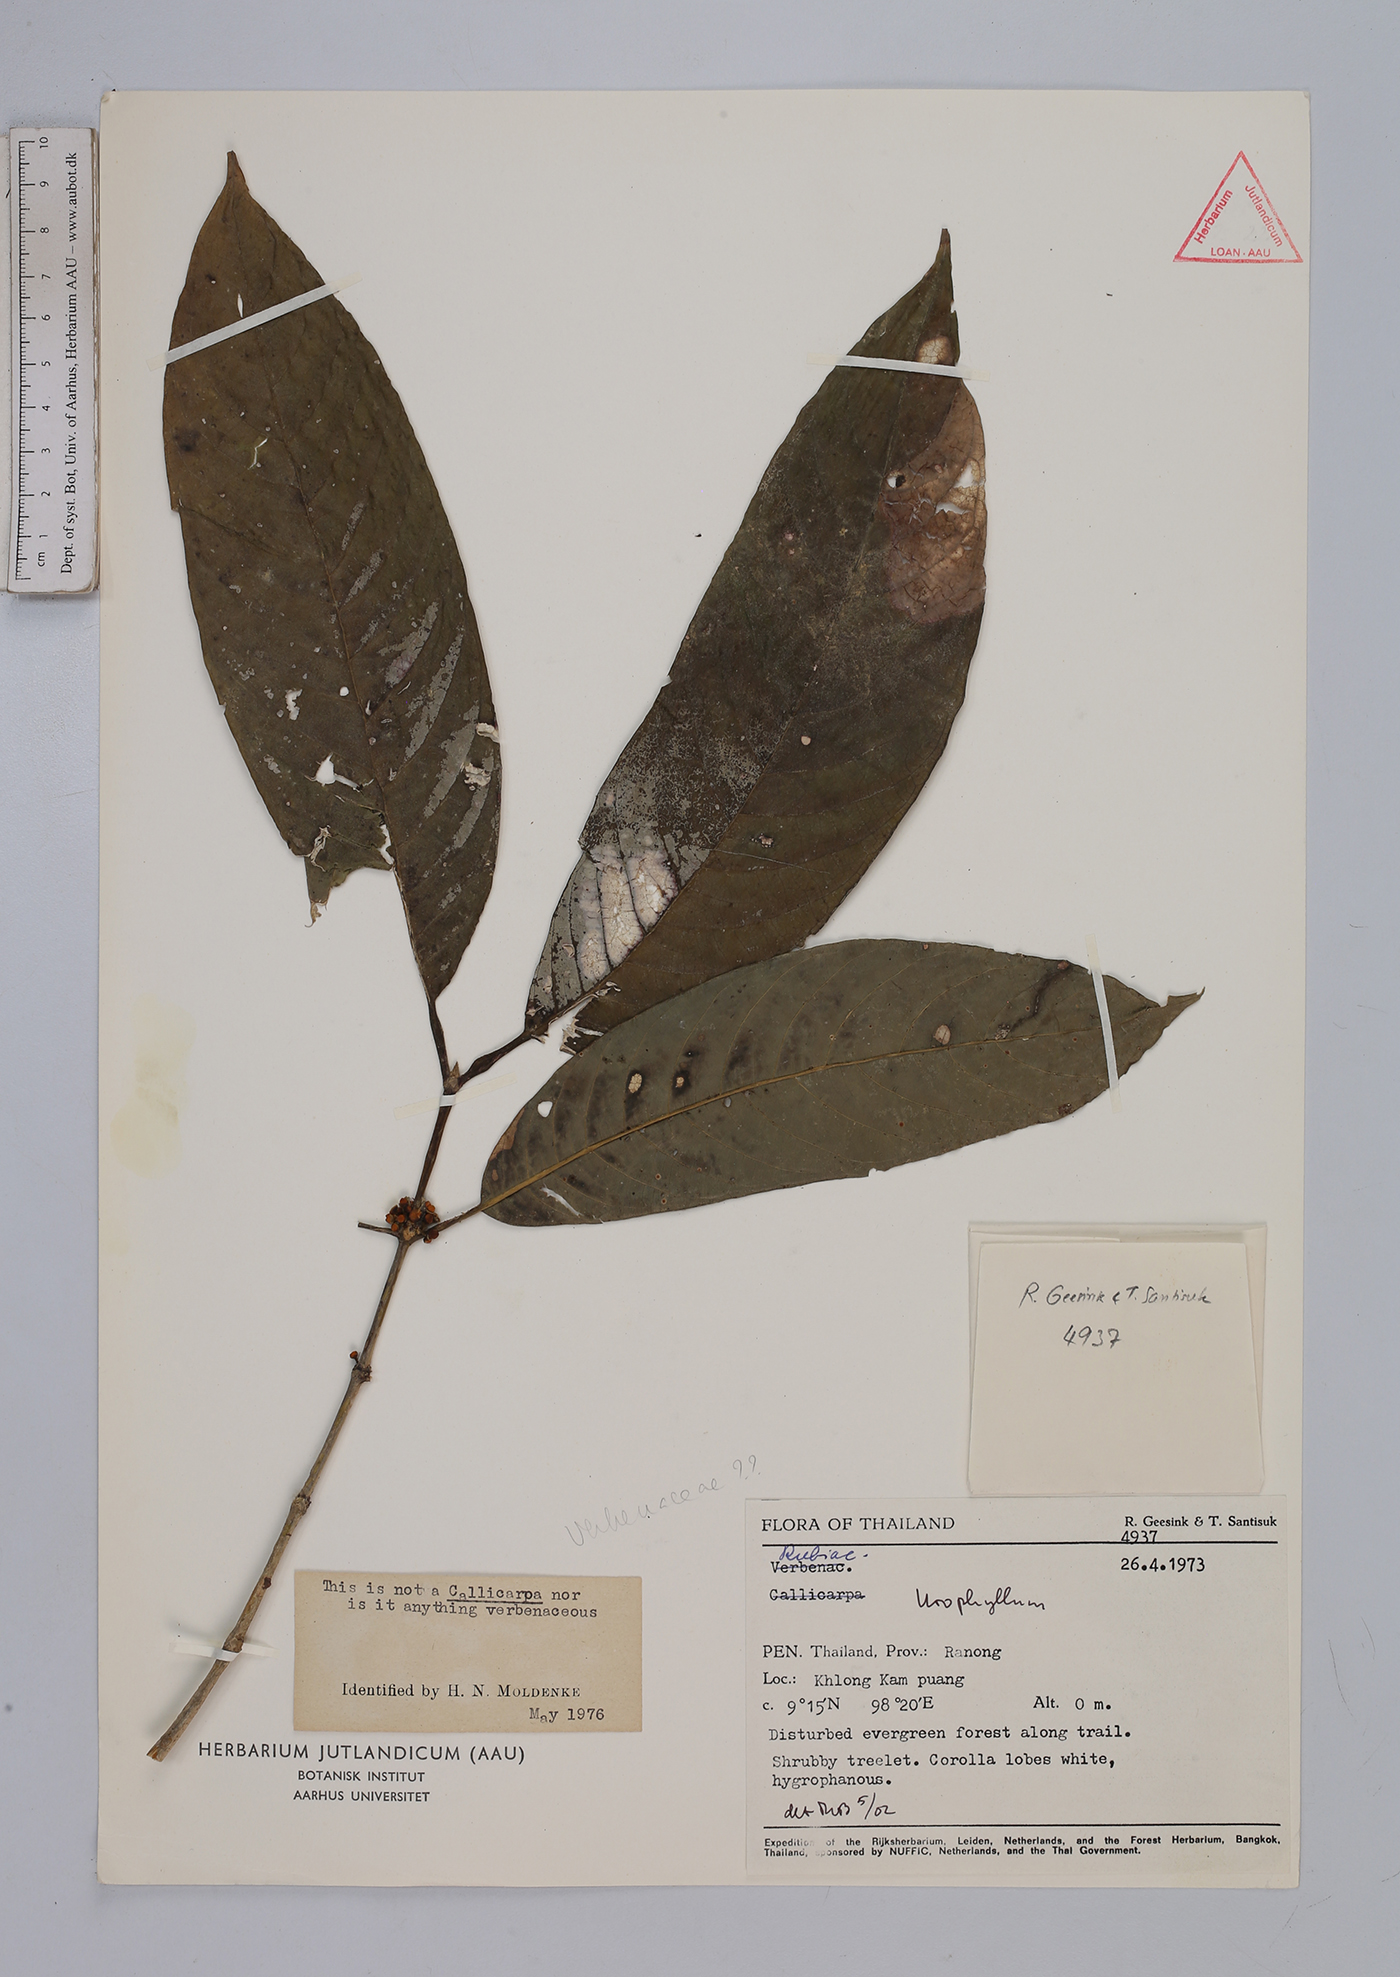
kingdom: Plantae
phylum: Tracheophyta
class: Magnoliopsida
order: Gentianales
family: Rubiaceae
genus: Urophyllum
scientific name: Urophyllum
